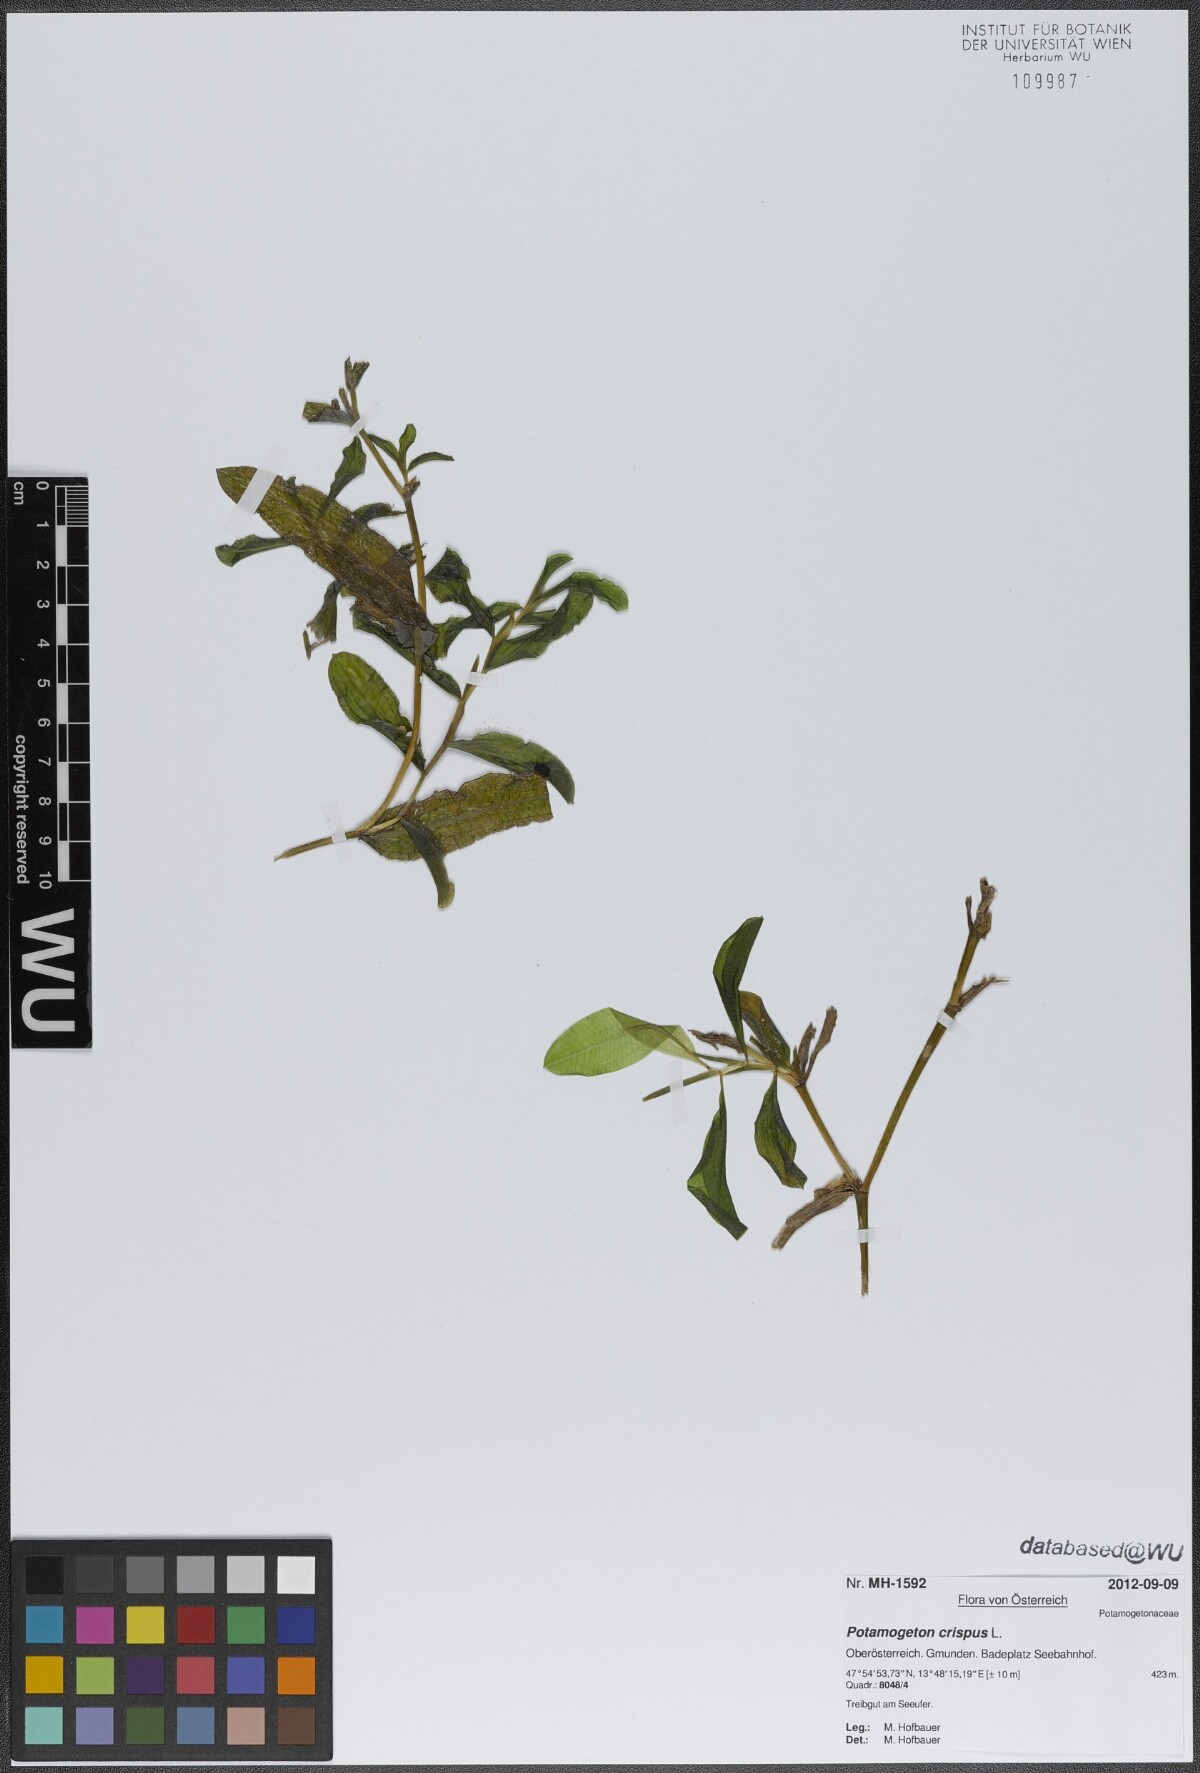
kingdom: Plantae
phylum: Tracheophyta
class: Liliopsida
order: Alismatales
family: Potamogetonaceae
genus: Potamogeton
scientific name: Potamogeton crispus
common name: Curled pondweed
